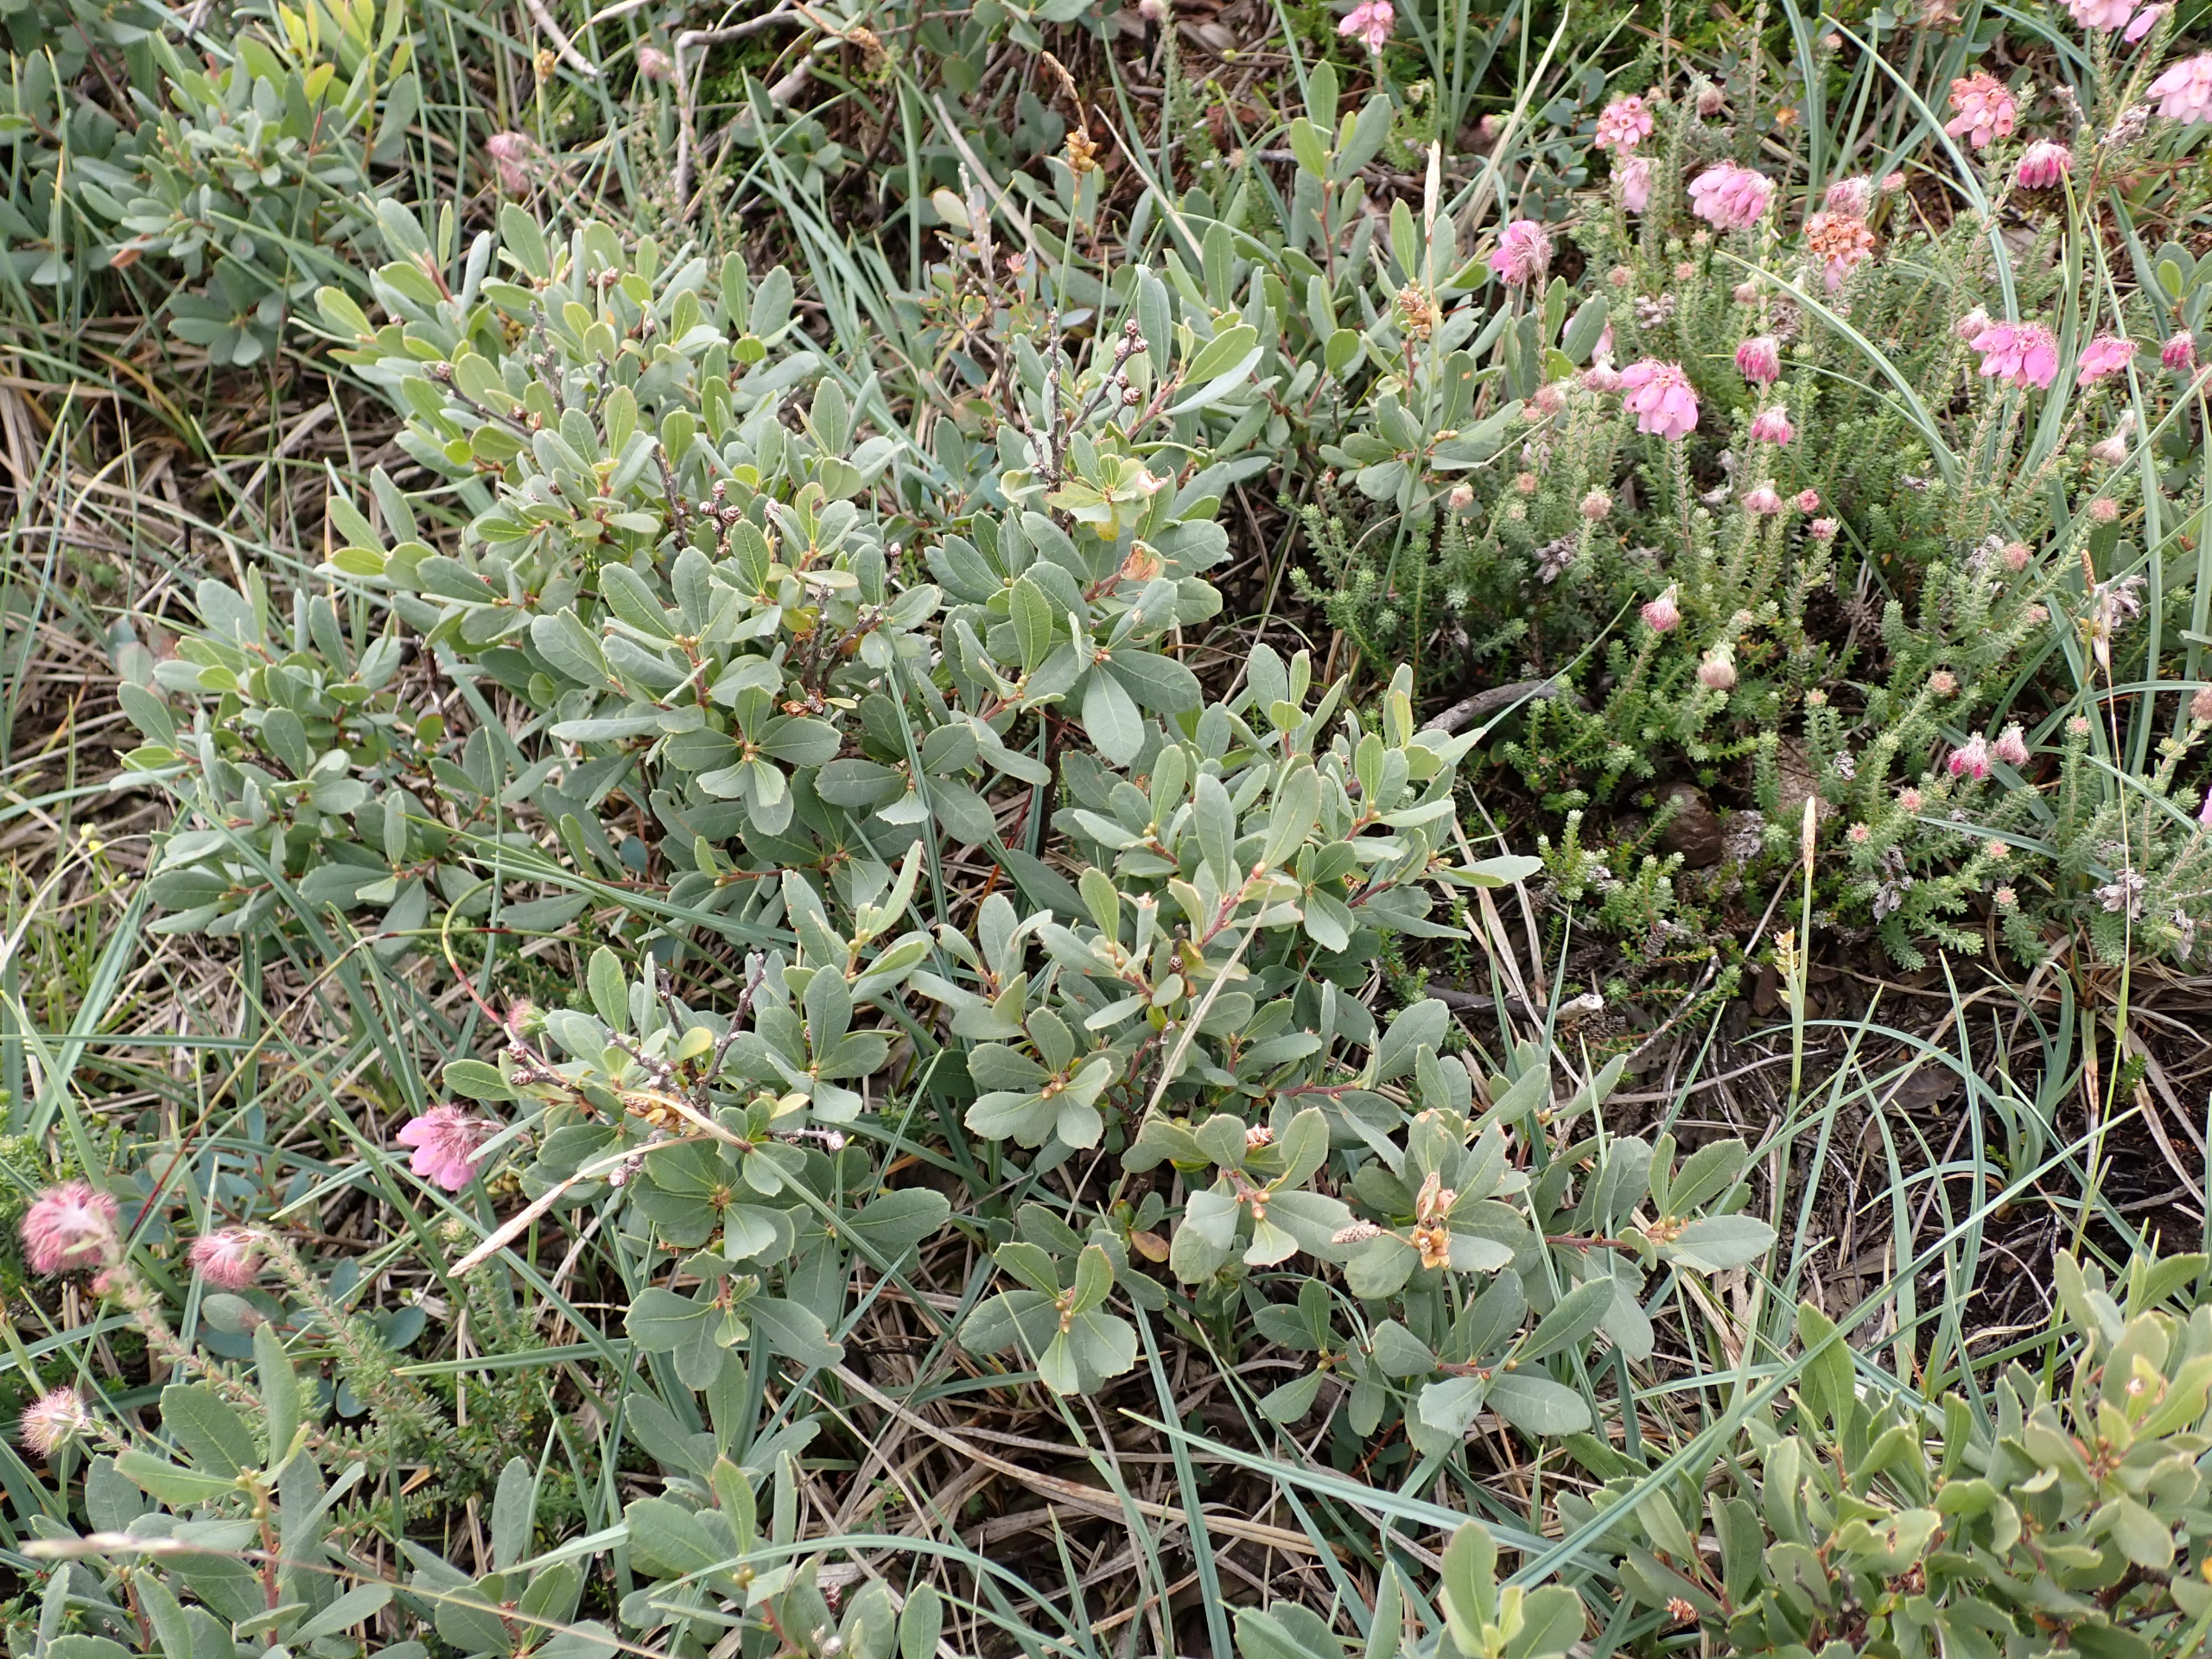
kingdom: Plantae
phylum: Tracheophyta
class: Magnoliopsida
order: Fagales
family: Myricaceae
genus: Myrica
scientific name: Myrica gale
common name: Pors
